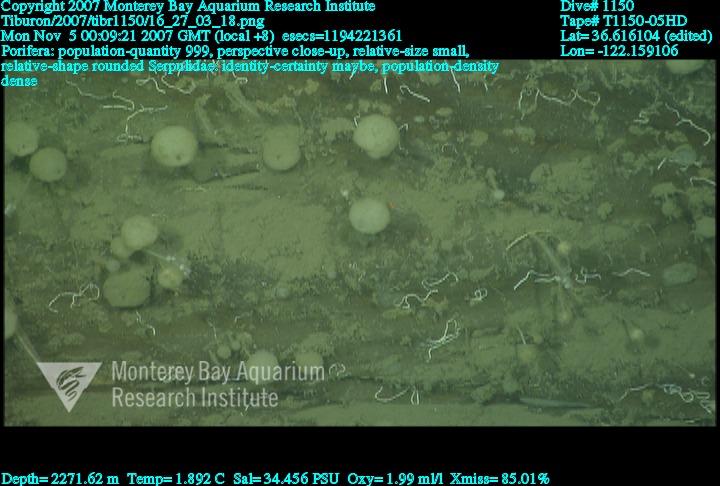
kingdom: Animalia
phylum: Porifera
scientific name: Porifera
